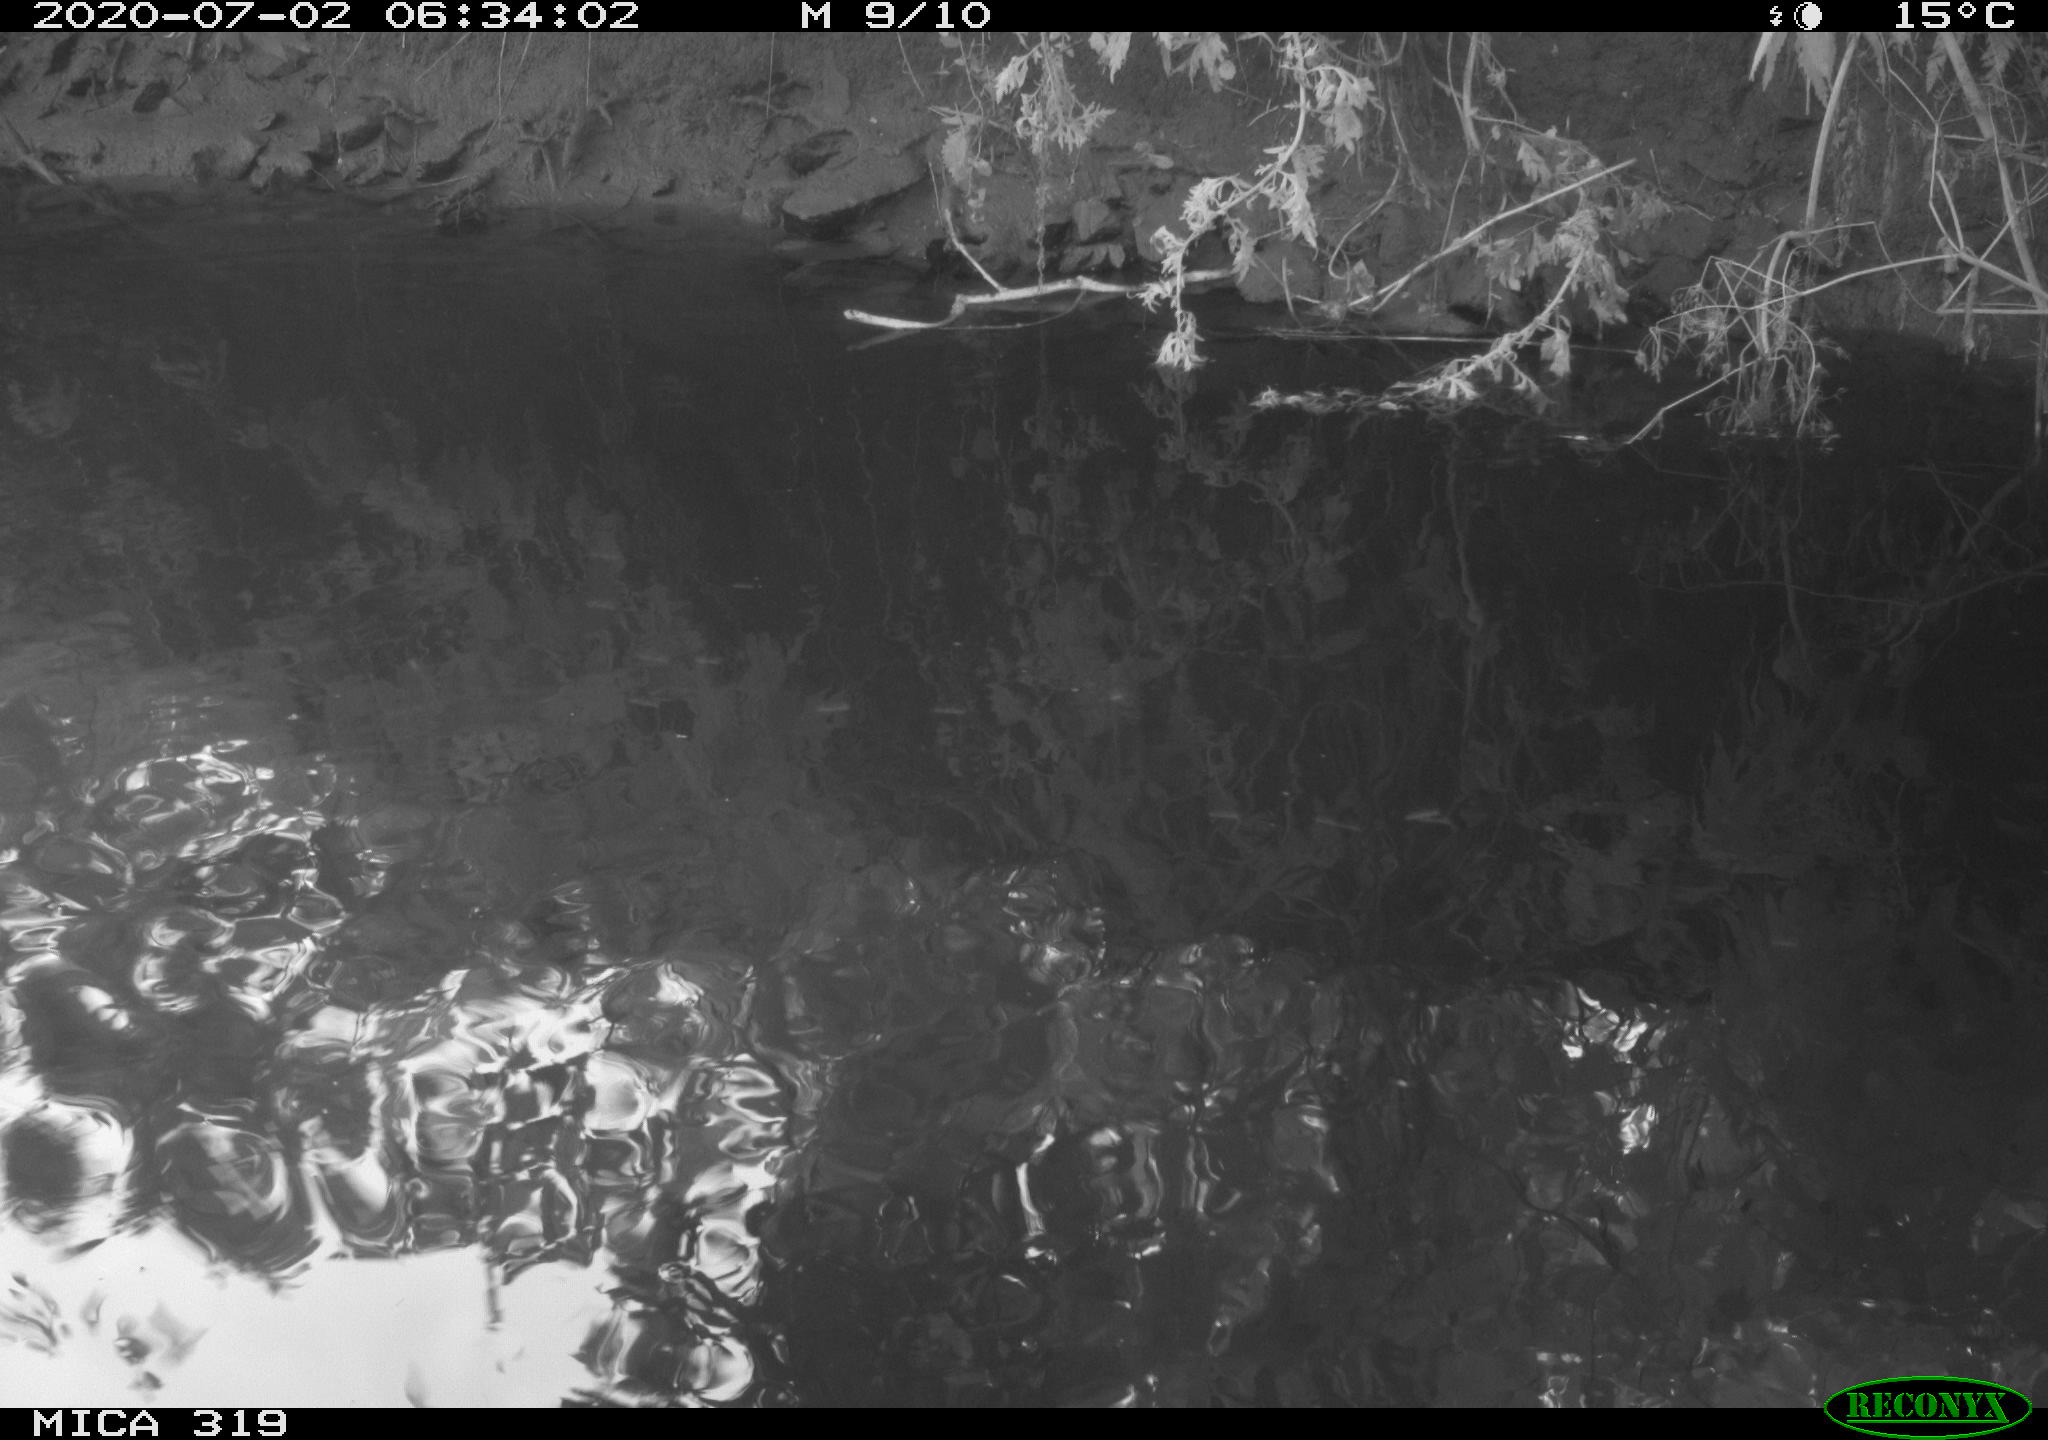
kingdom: Animalia
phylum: Chordata
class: Aves
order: Anseriformes
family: Anatidae
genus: Anas
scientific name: Anas platyrhynchos
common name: Mallard
